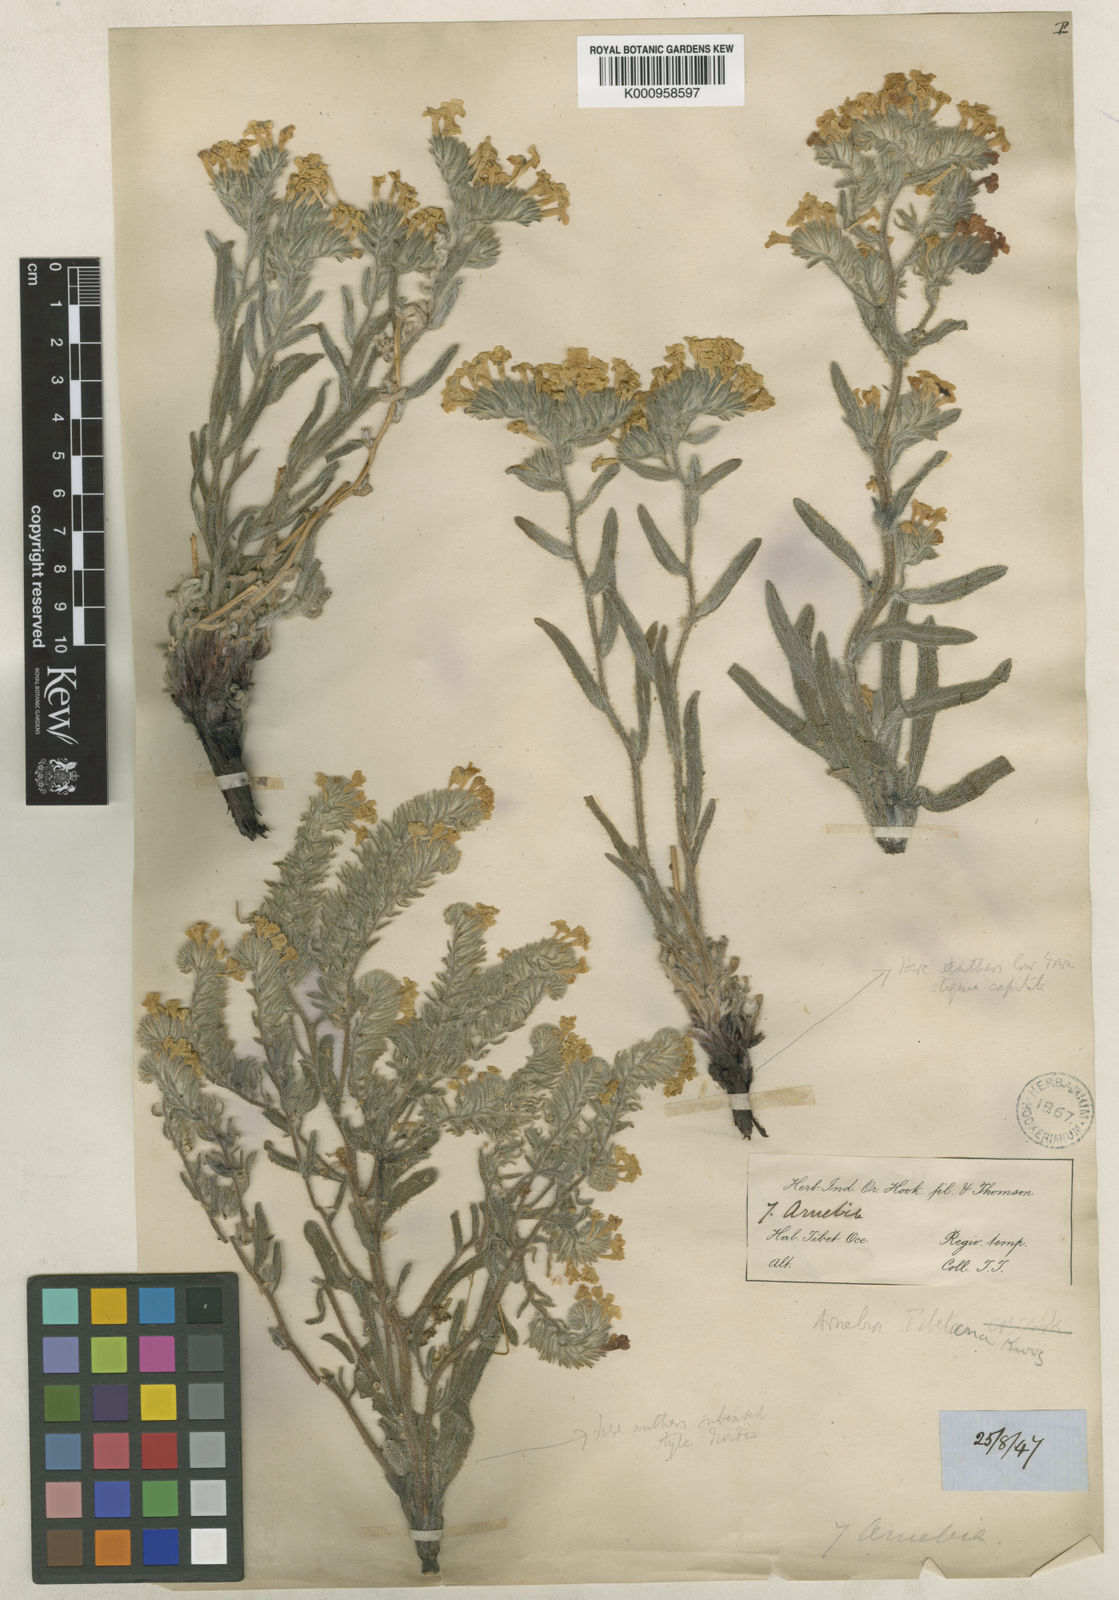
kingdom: Plantae
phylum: Tracheophyta
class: Magnoliopsida
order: Boraginales
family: Boraginaceae
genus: Arnebia
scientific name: Arnebia guttata
